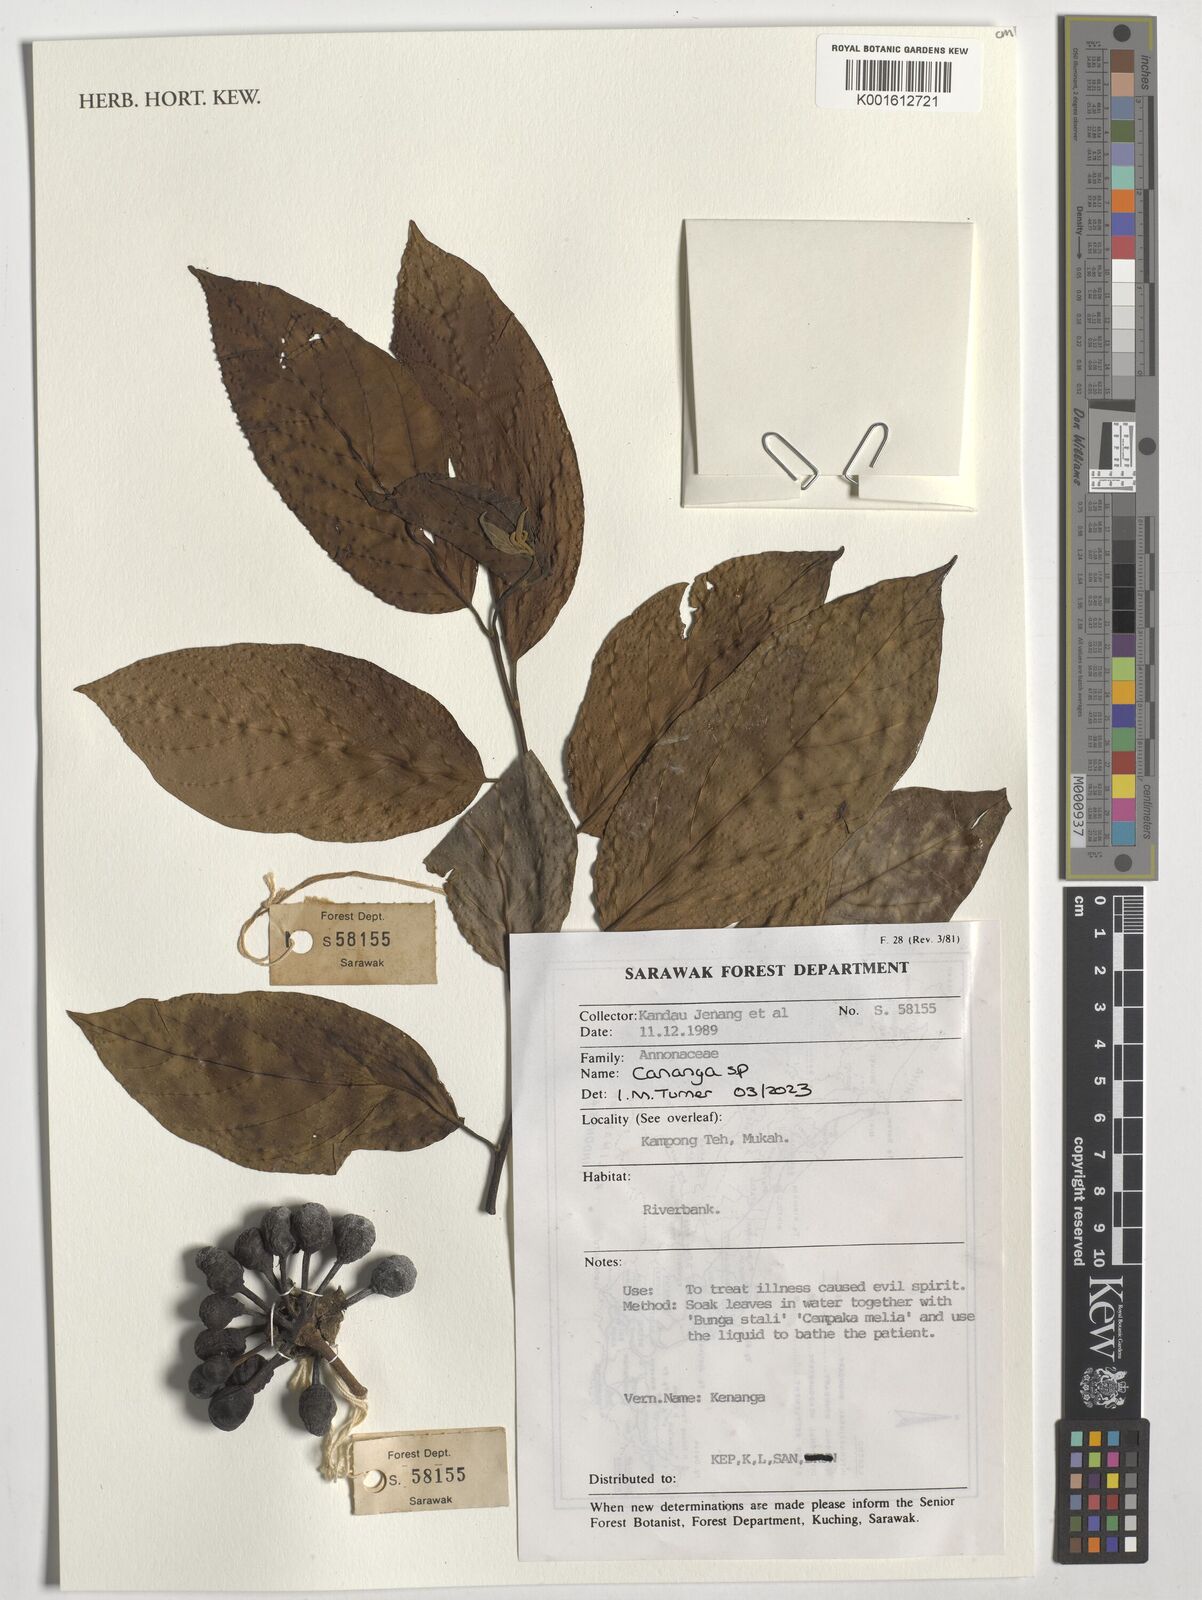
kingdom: Plantae
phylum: Tracheophyta
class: Magnoliopsida
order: Magnoliales
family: Annonaceae
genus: Cananga
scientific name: Cananga
